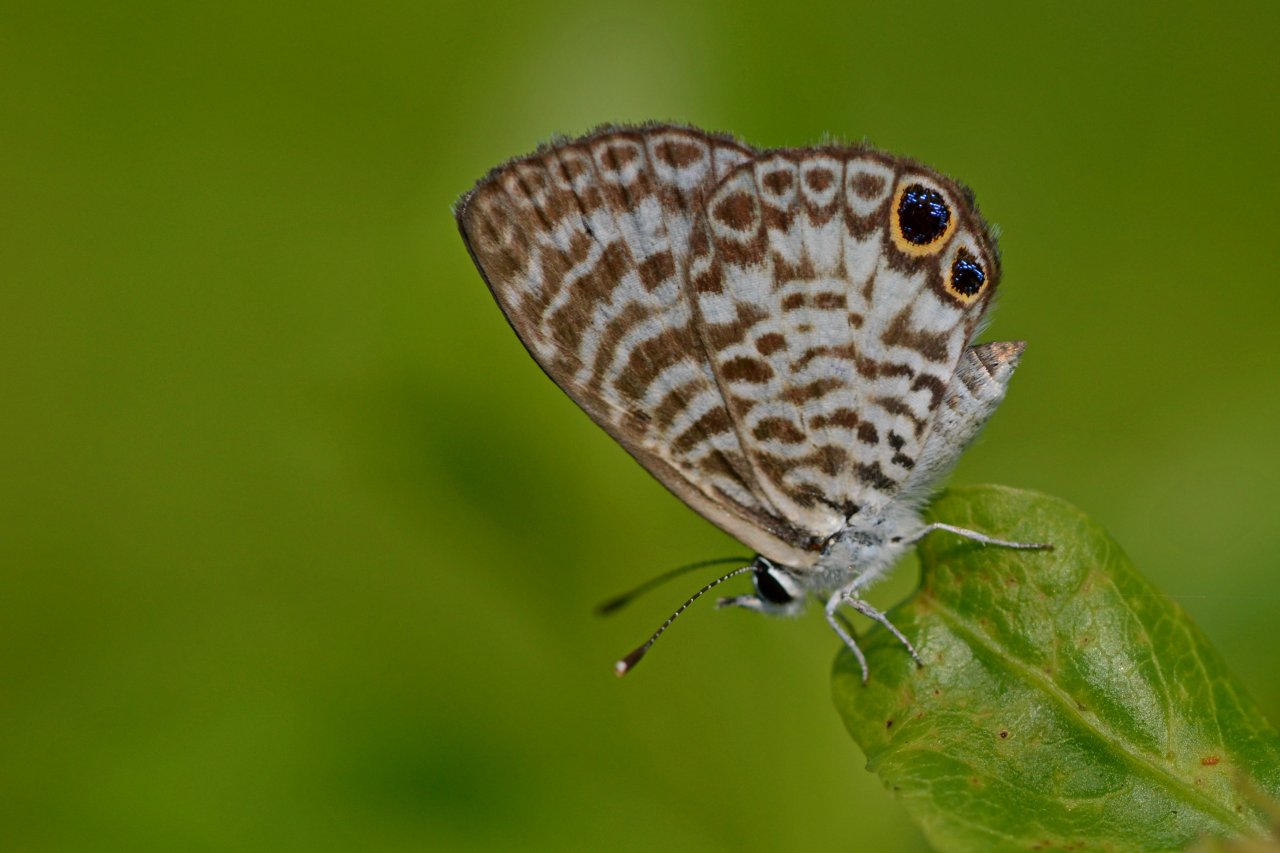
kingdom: Animalia
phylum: Arthropoda
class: Insecta
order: Lepidoptera
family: Lycaenidae
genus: Leptotes
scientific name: Leptotes cassius
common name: Cassius Blue
